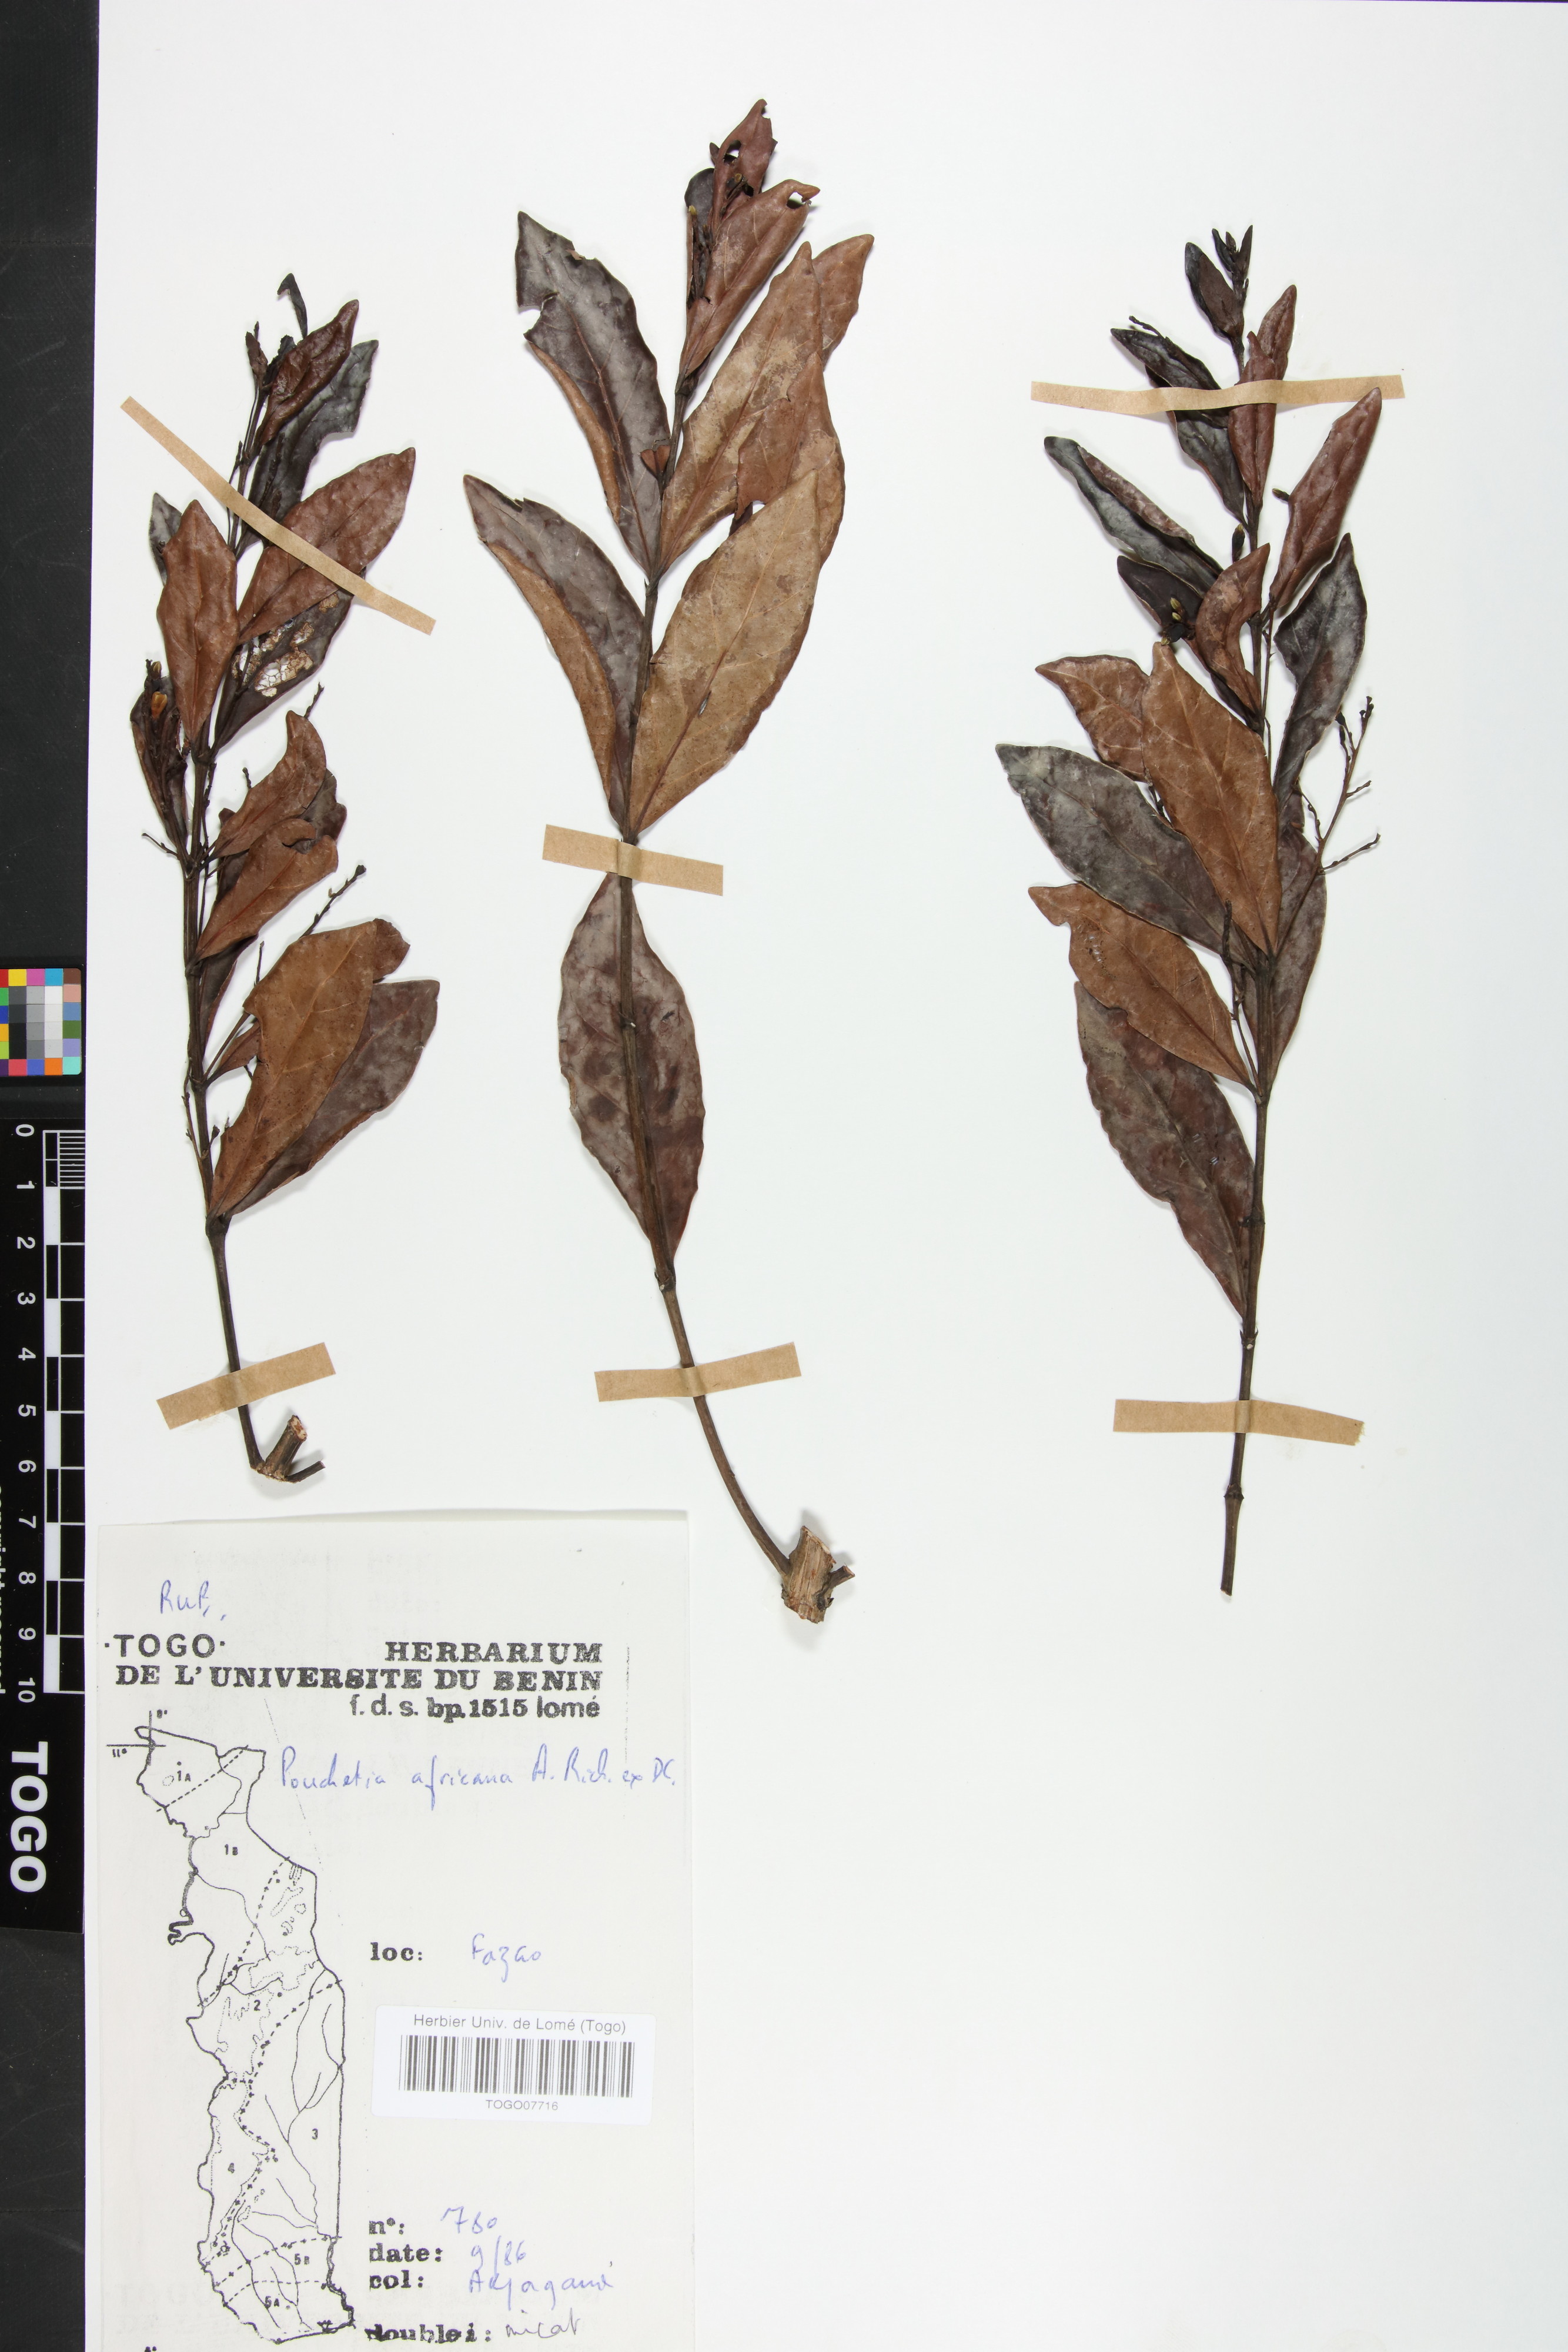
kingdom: Plantae
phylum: Tracheophyta
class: Magnoliopsida
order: Gentianales
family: Rubiaceae
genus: Pouchetia
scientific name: Pouchetia africana
